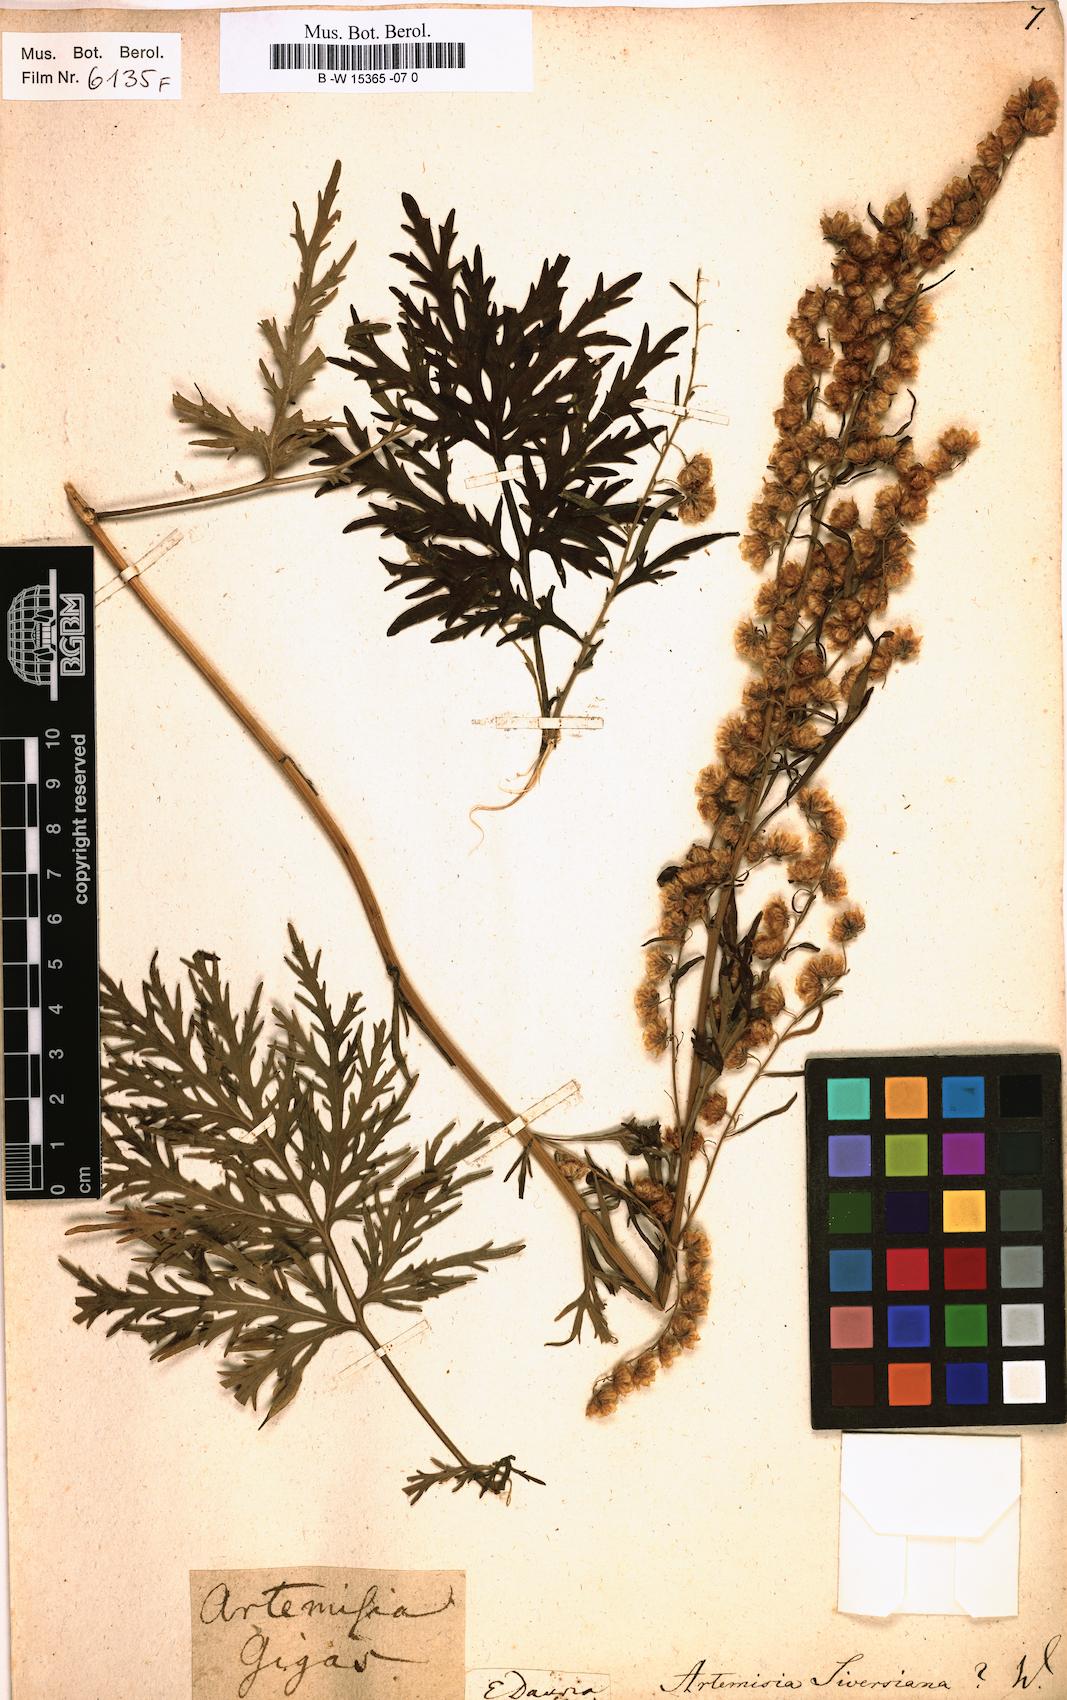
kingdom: Plantae
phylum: Tracheophyta
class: Magnoliopsida
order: Asterales
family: Asteraceae
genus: Artemisia
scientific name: Artemisia sieversiana
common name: Sieversian wormwood
